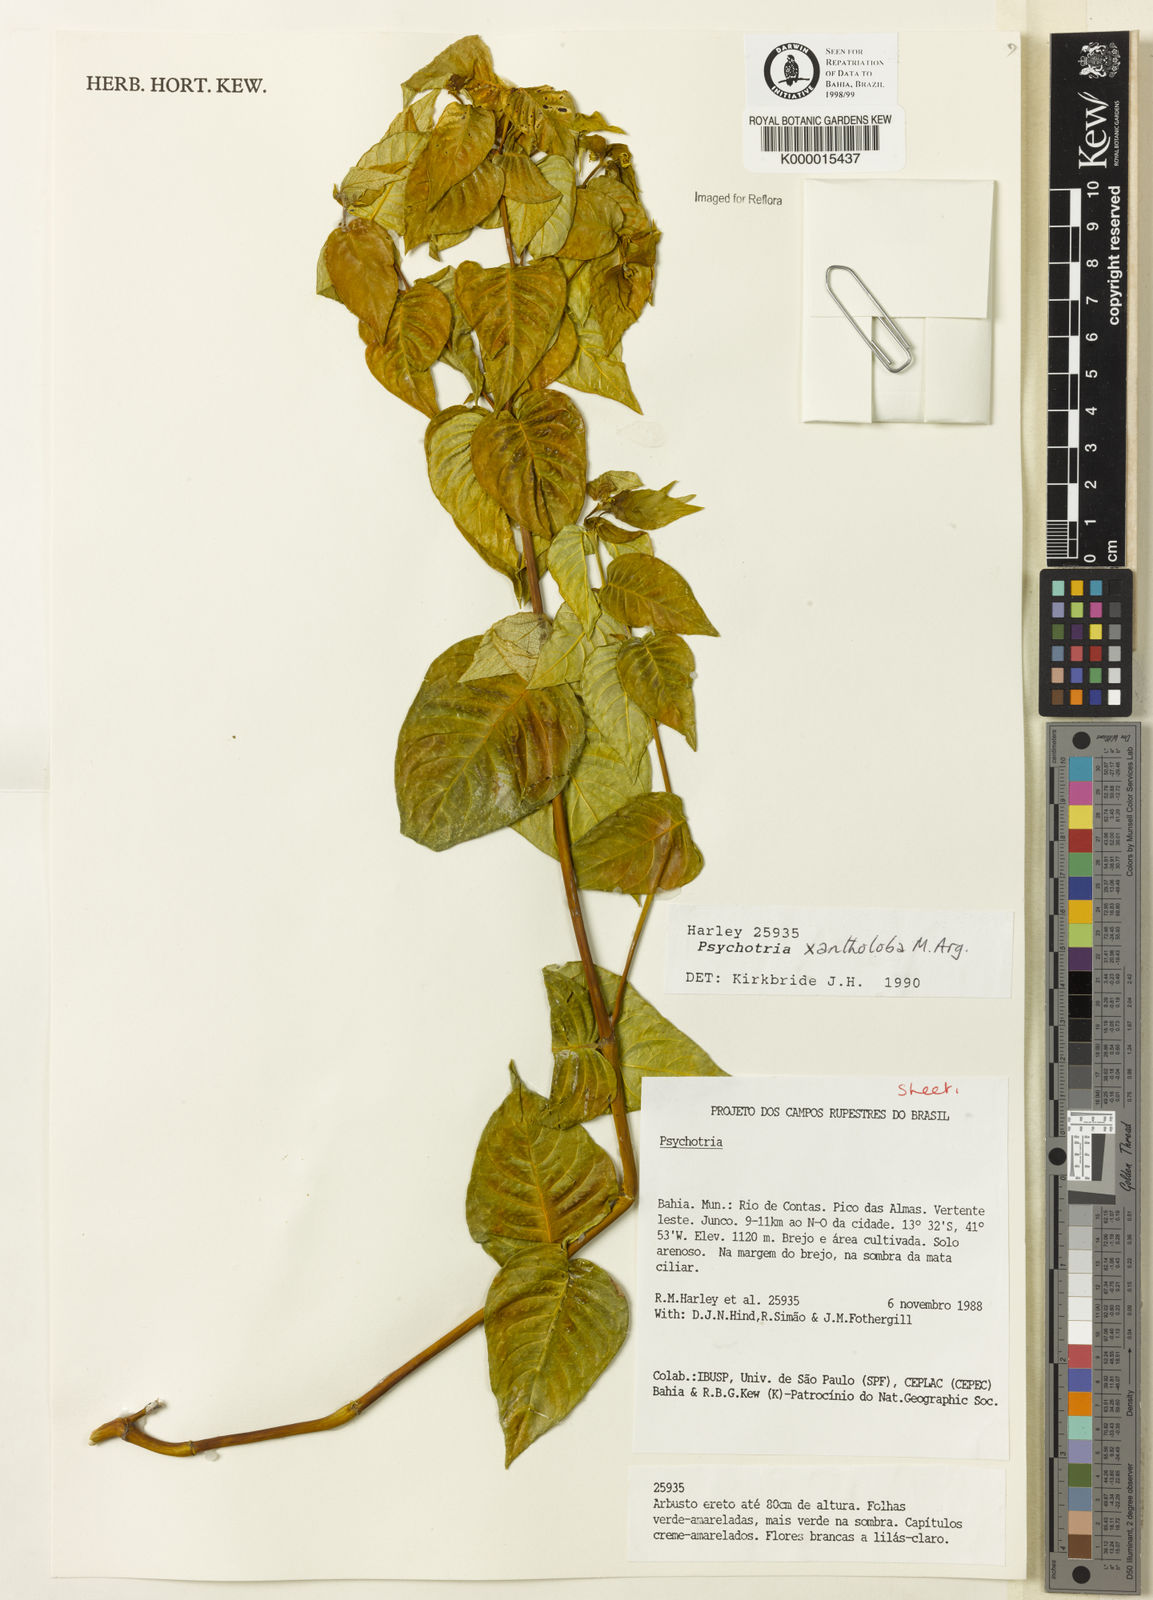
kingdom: Plantae
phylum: Tracheophyta
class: Magnoliopsida
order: Gentianales
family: Rubiaceae
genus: Psychotria
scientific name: Psychotria xantholoba
